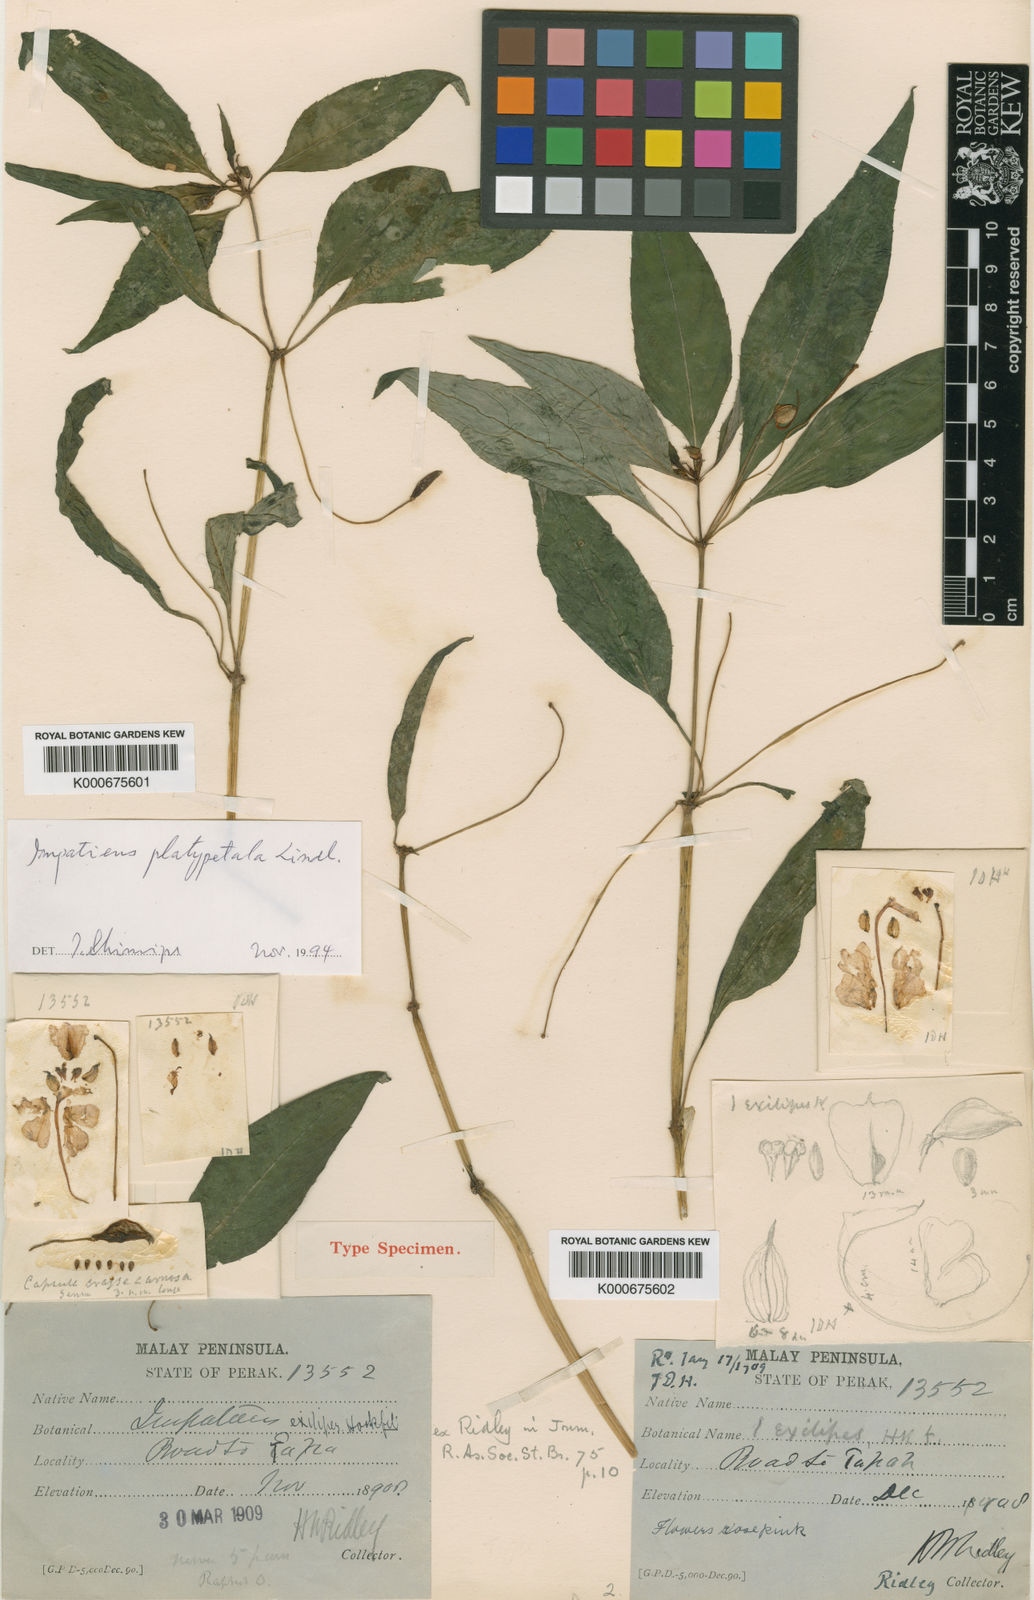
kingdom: Plantae
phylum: Tracheophyta
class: Magnoliopsida
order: Ericales
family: Balsaminaceae
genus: Impatiens
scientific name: Impatiens platypetala
